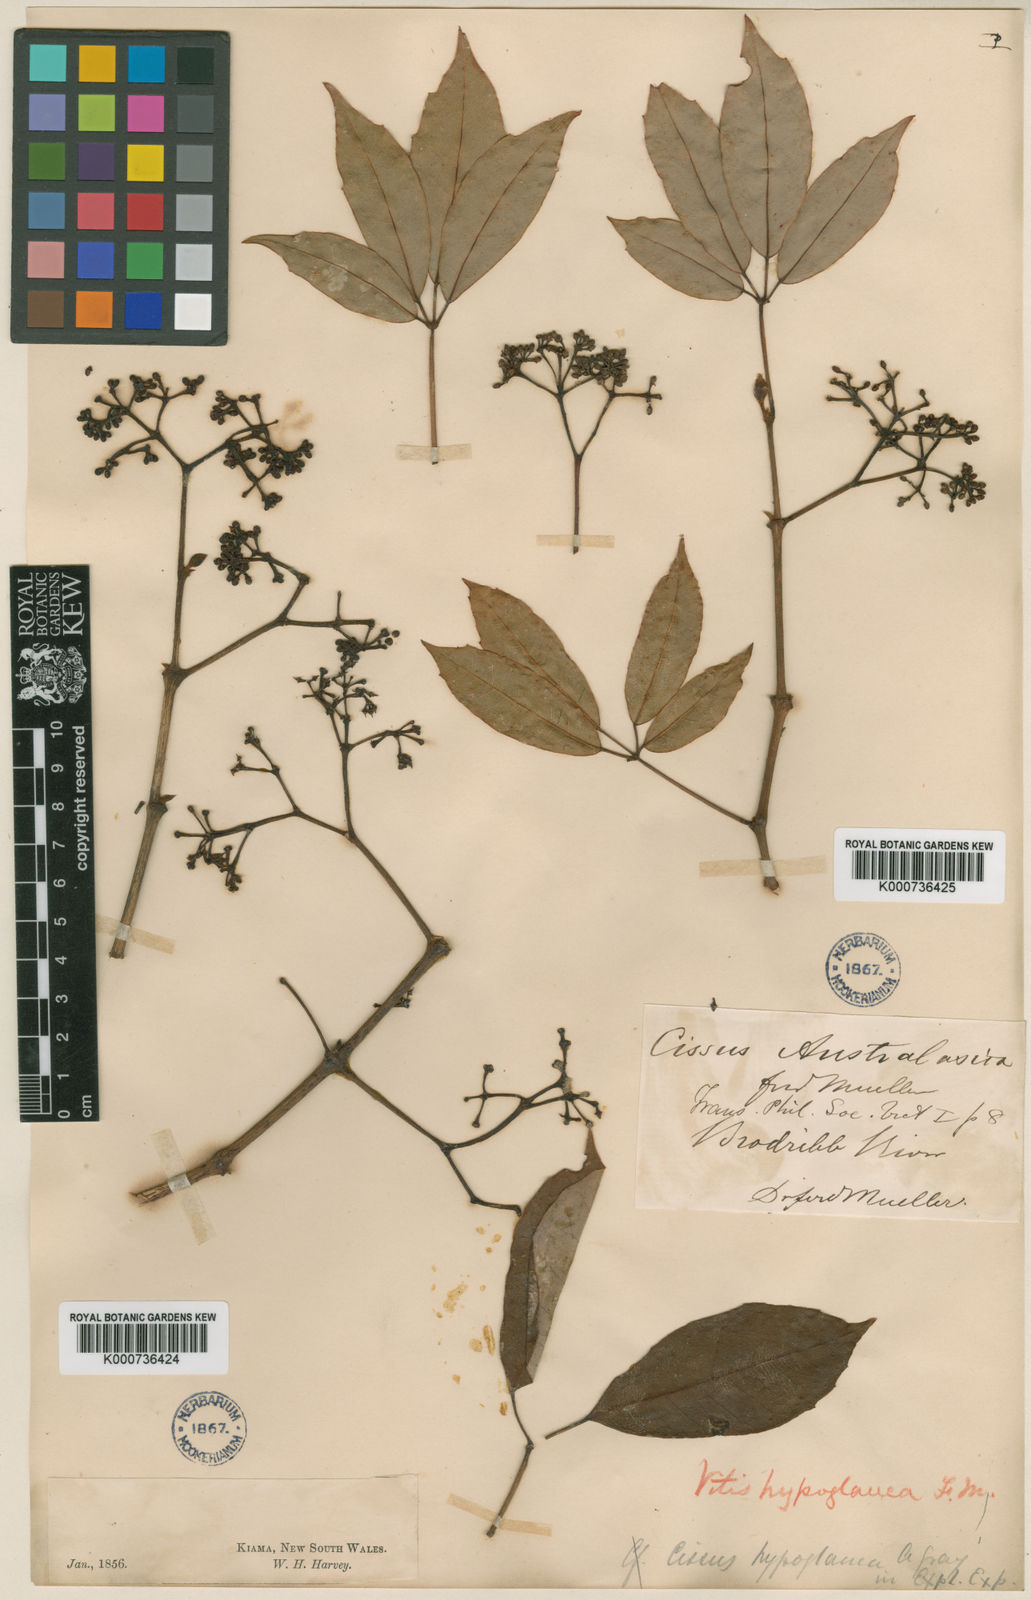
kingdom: Plantae
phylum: Tracheophyta
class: Magnoliopsida
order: Vitales
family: Vitaceae
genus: Nothocissus
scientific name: Nothocissus hypoglauca
